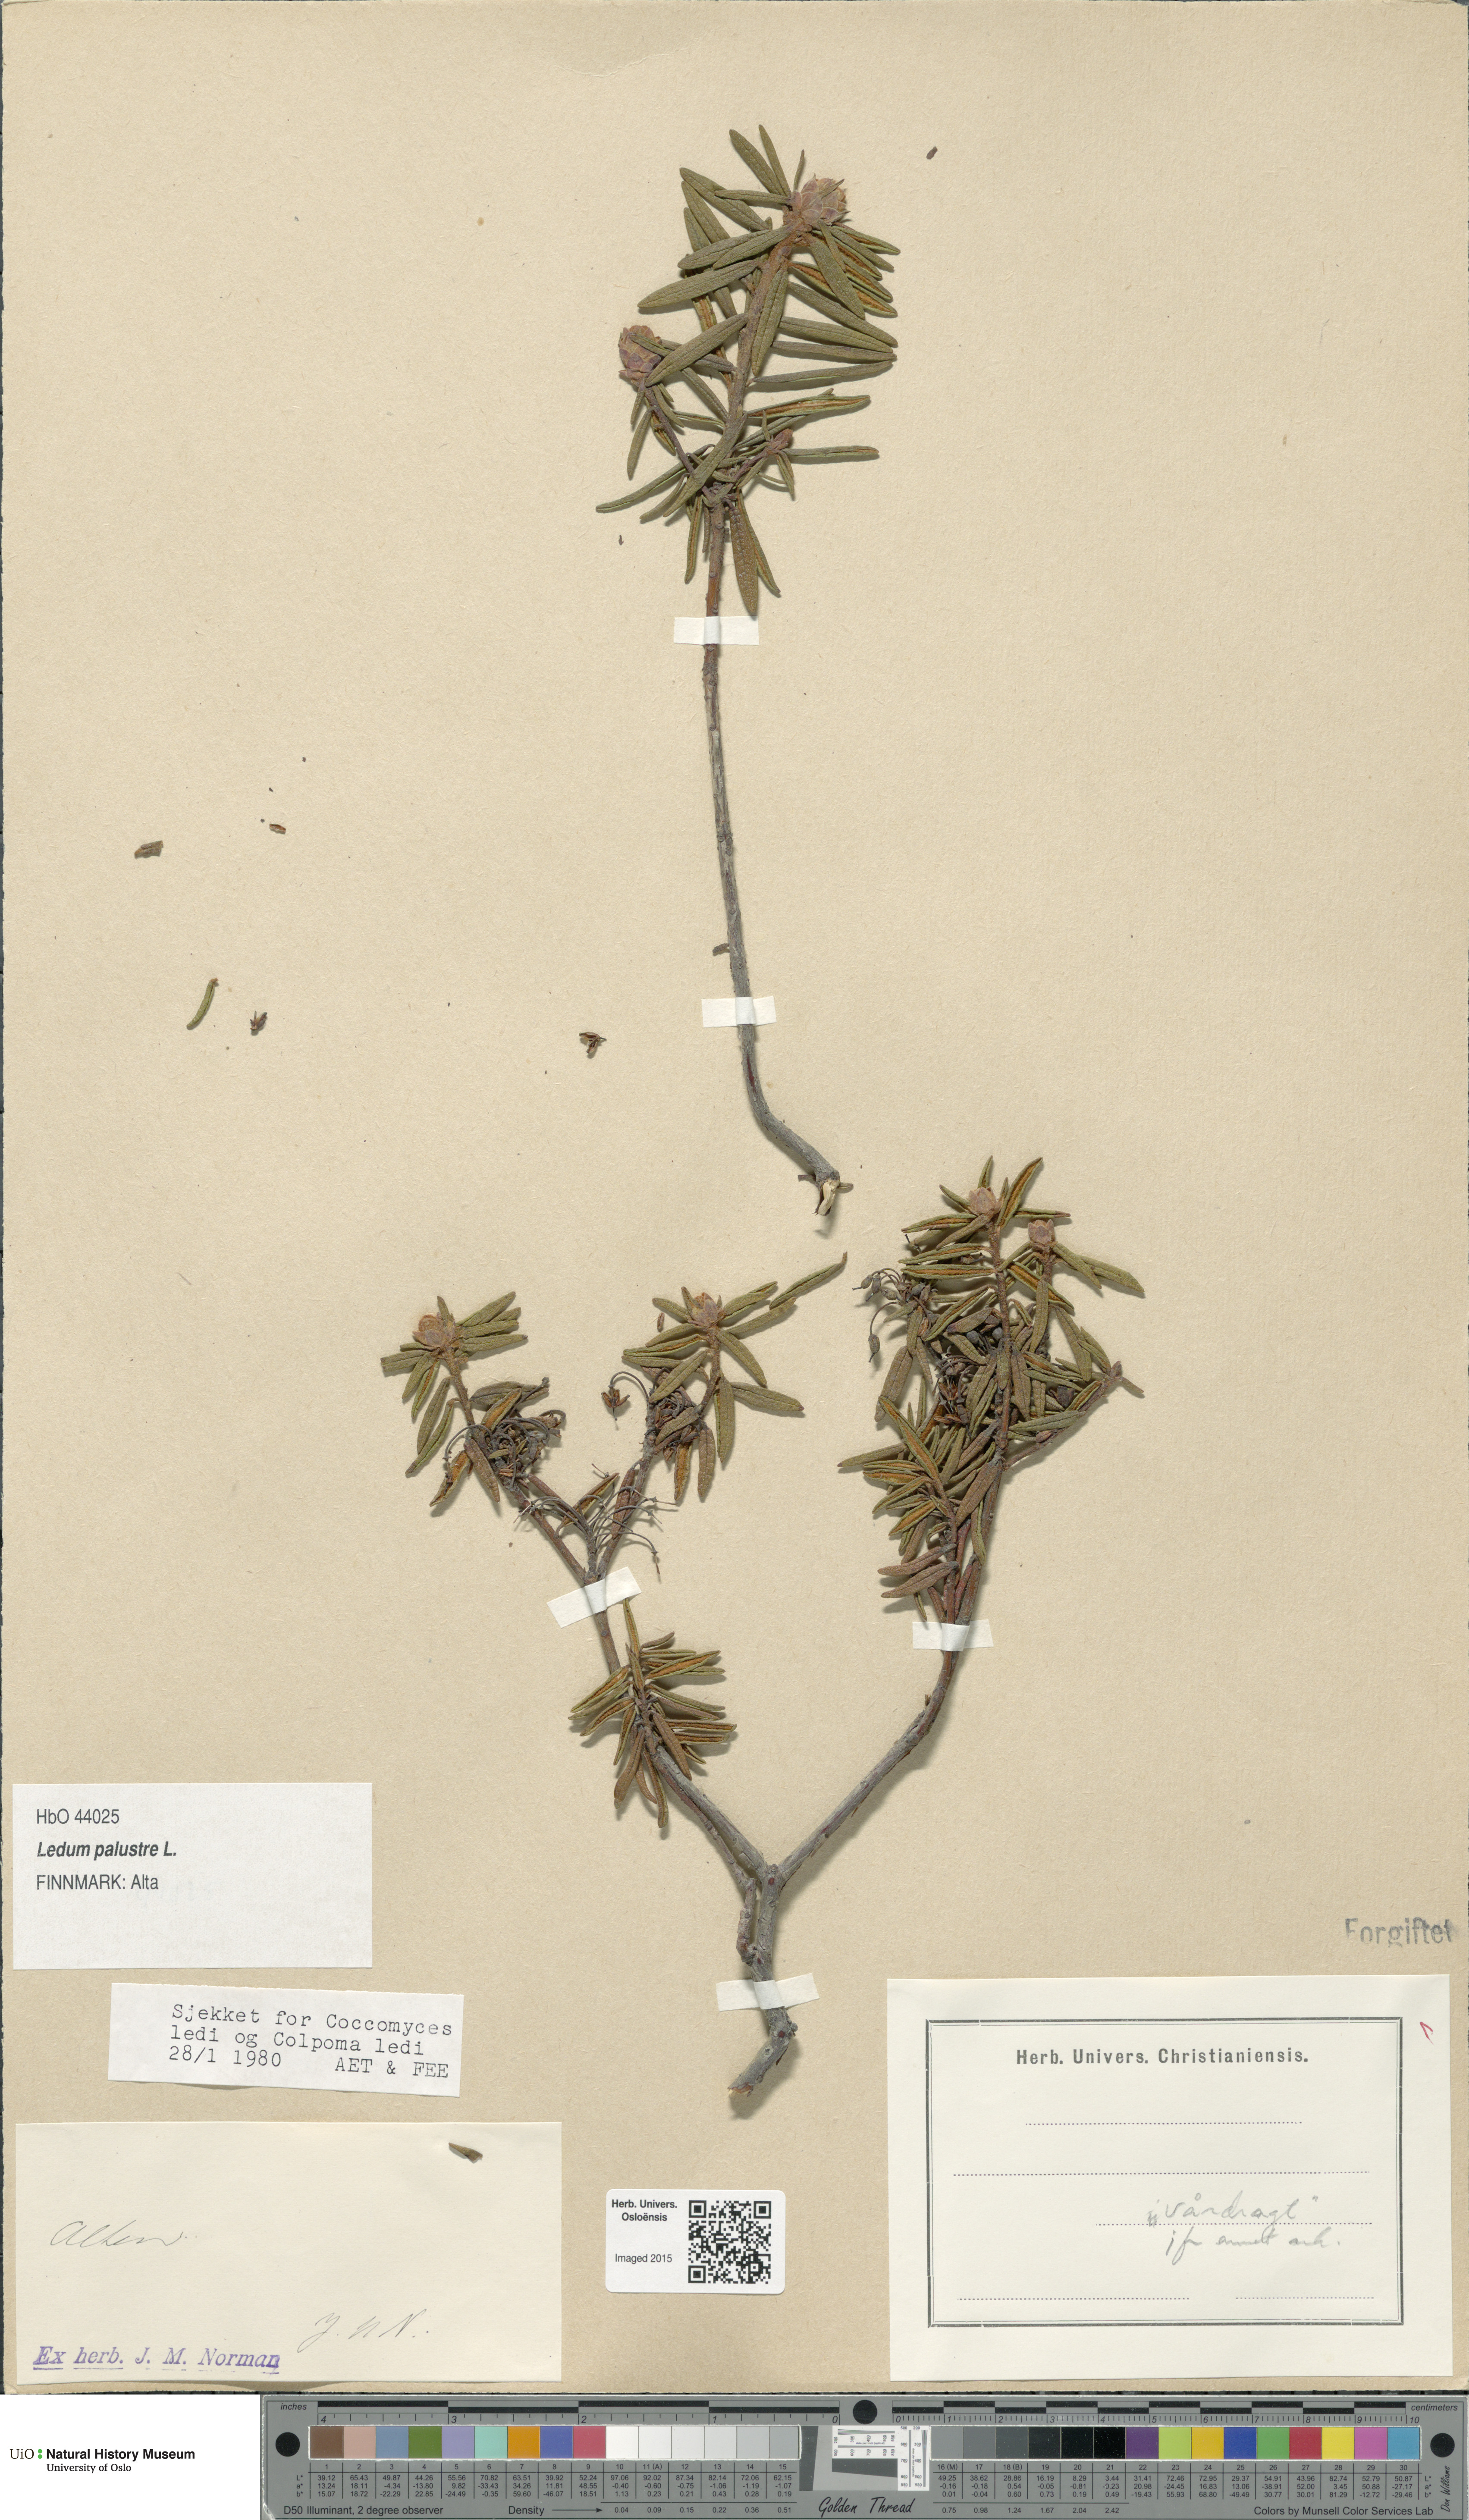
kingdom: Plantae
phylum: Tracheophyta
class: Magnoliopsida
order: Ericales
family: Ericaceae
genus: Rhododendron
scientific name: Rhododendron tomentosum
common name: Marsh labrador tea
